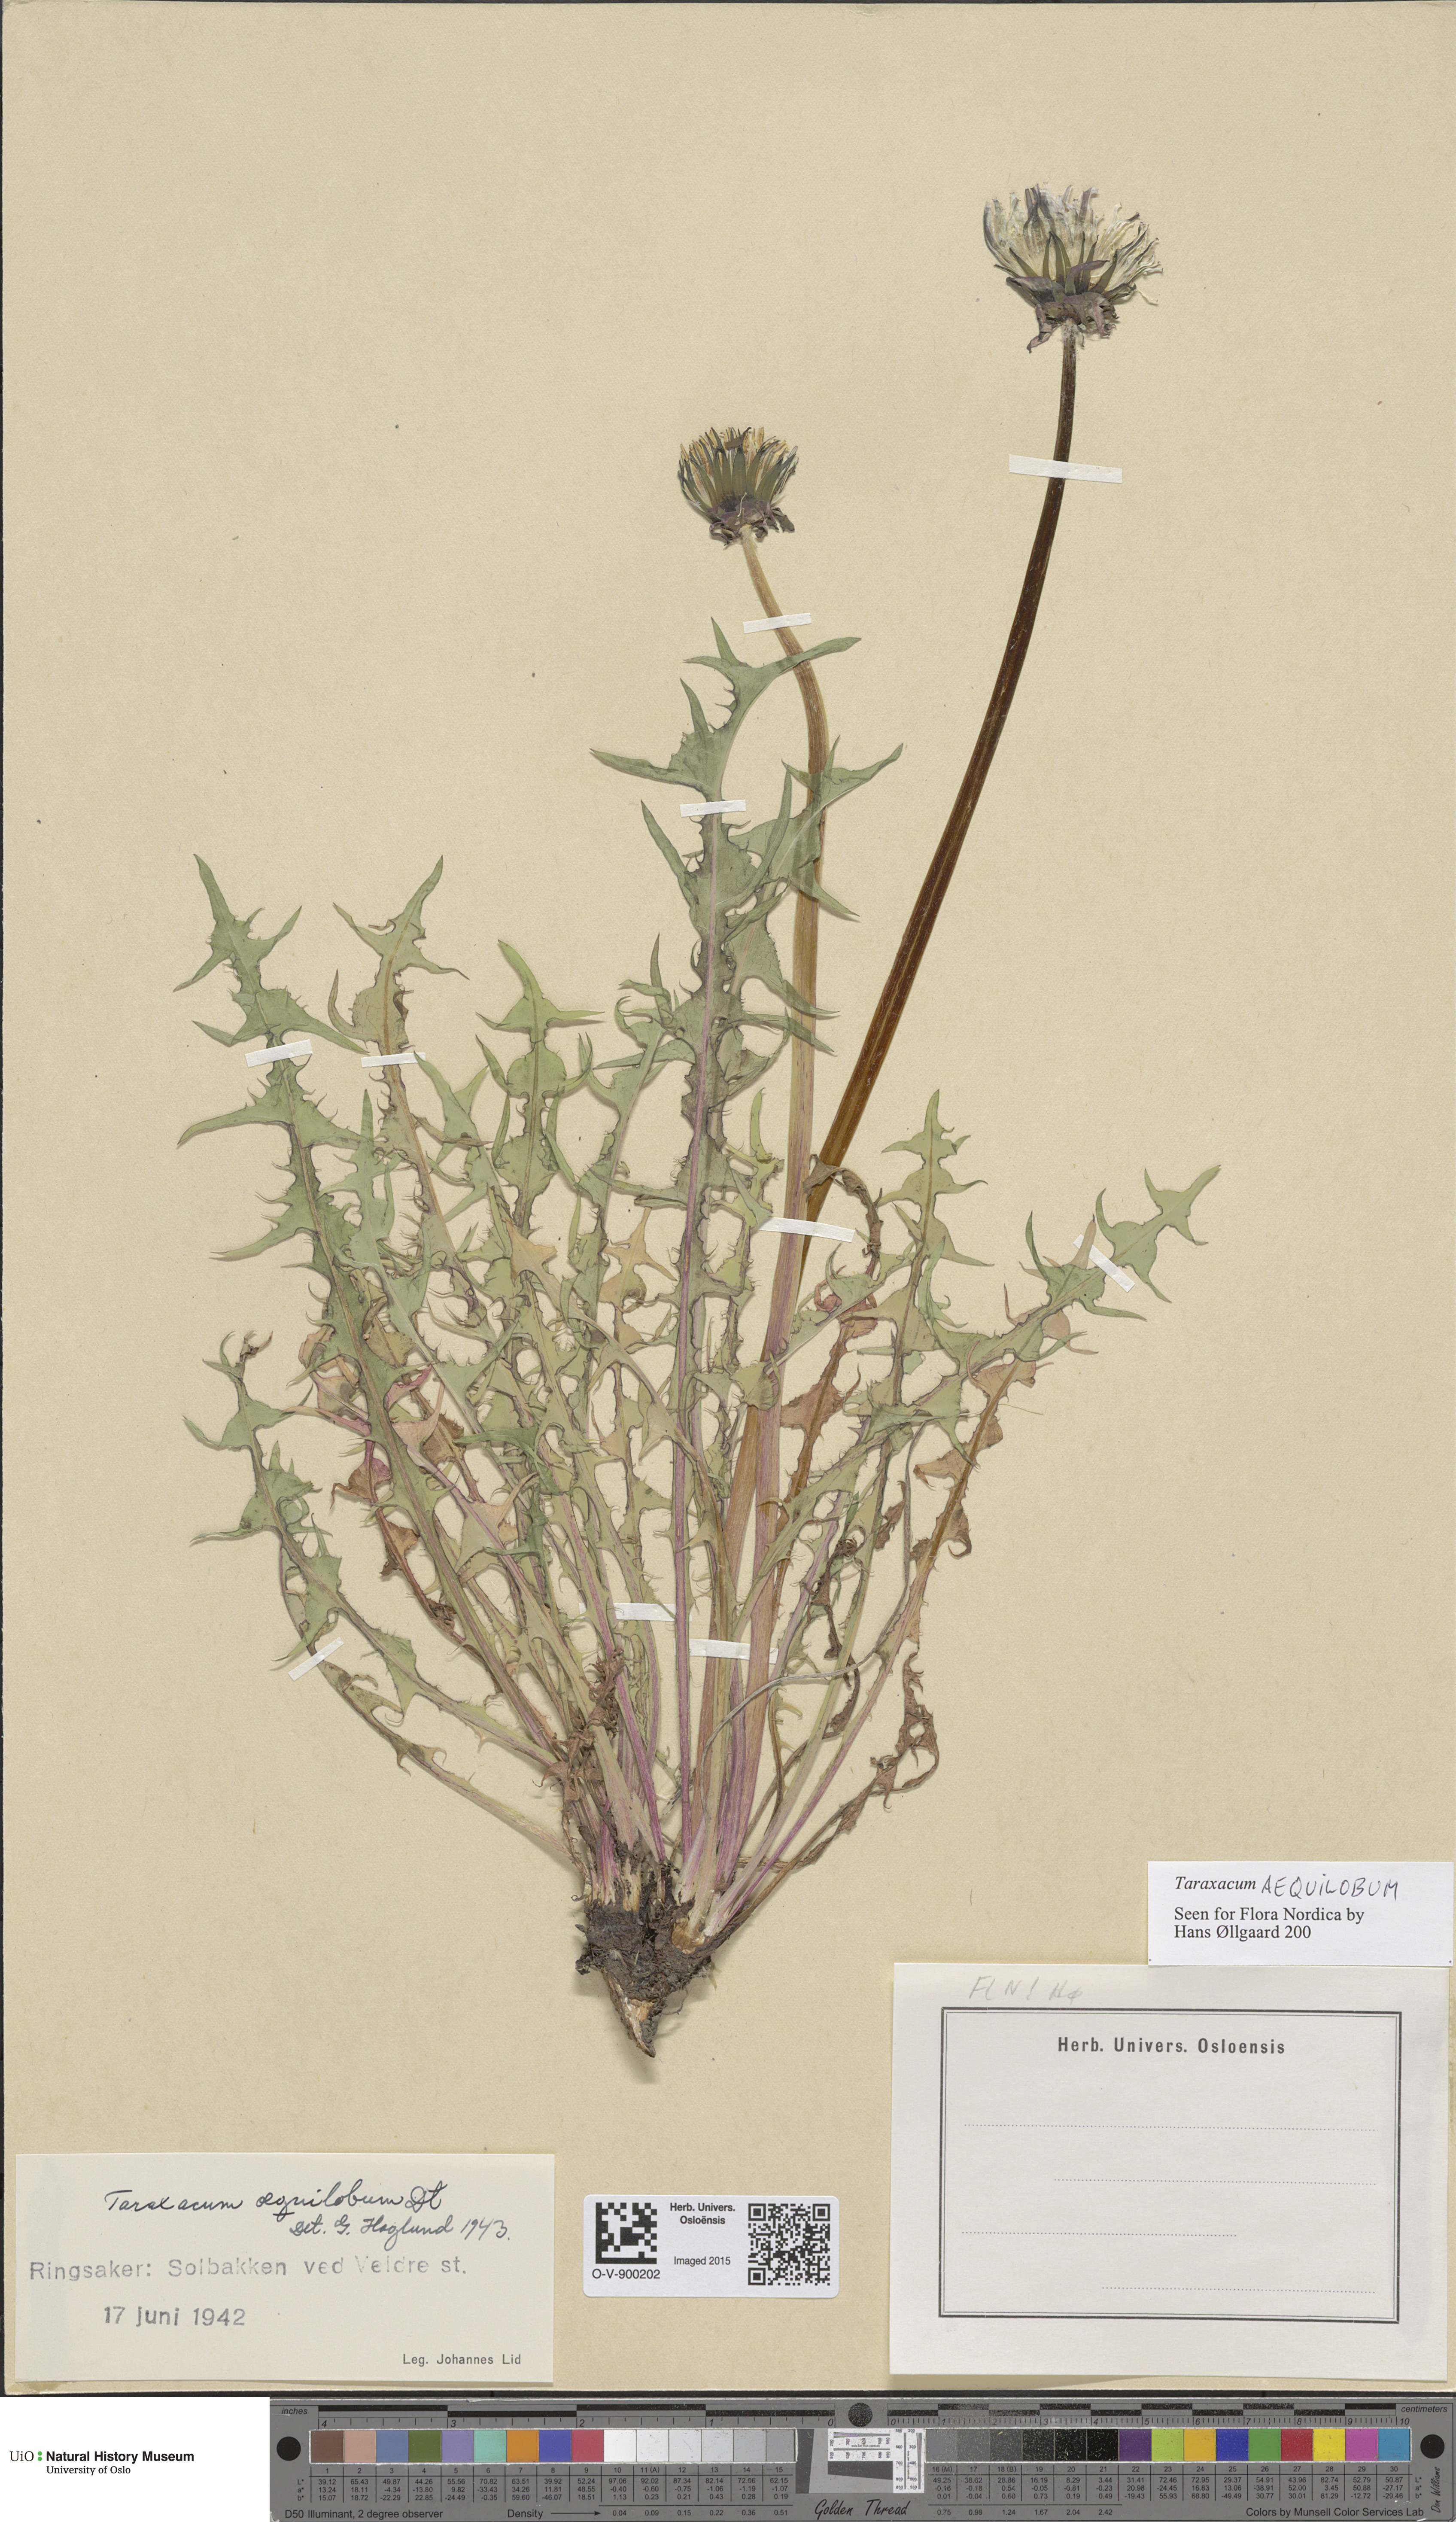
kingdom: Plantae
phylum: Tracheophyta
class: Magnoliopsida
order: Asterales
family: Asteraceae
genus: Taraxacum
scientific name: Taraxacum aequilobum
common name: Twisted-bracted dandelion
